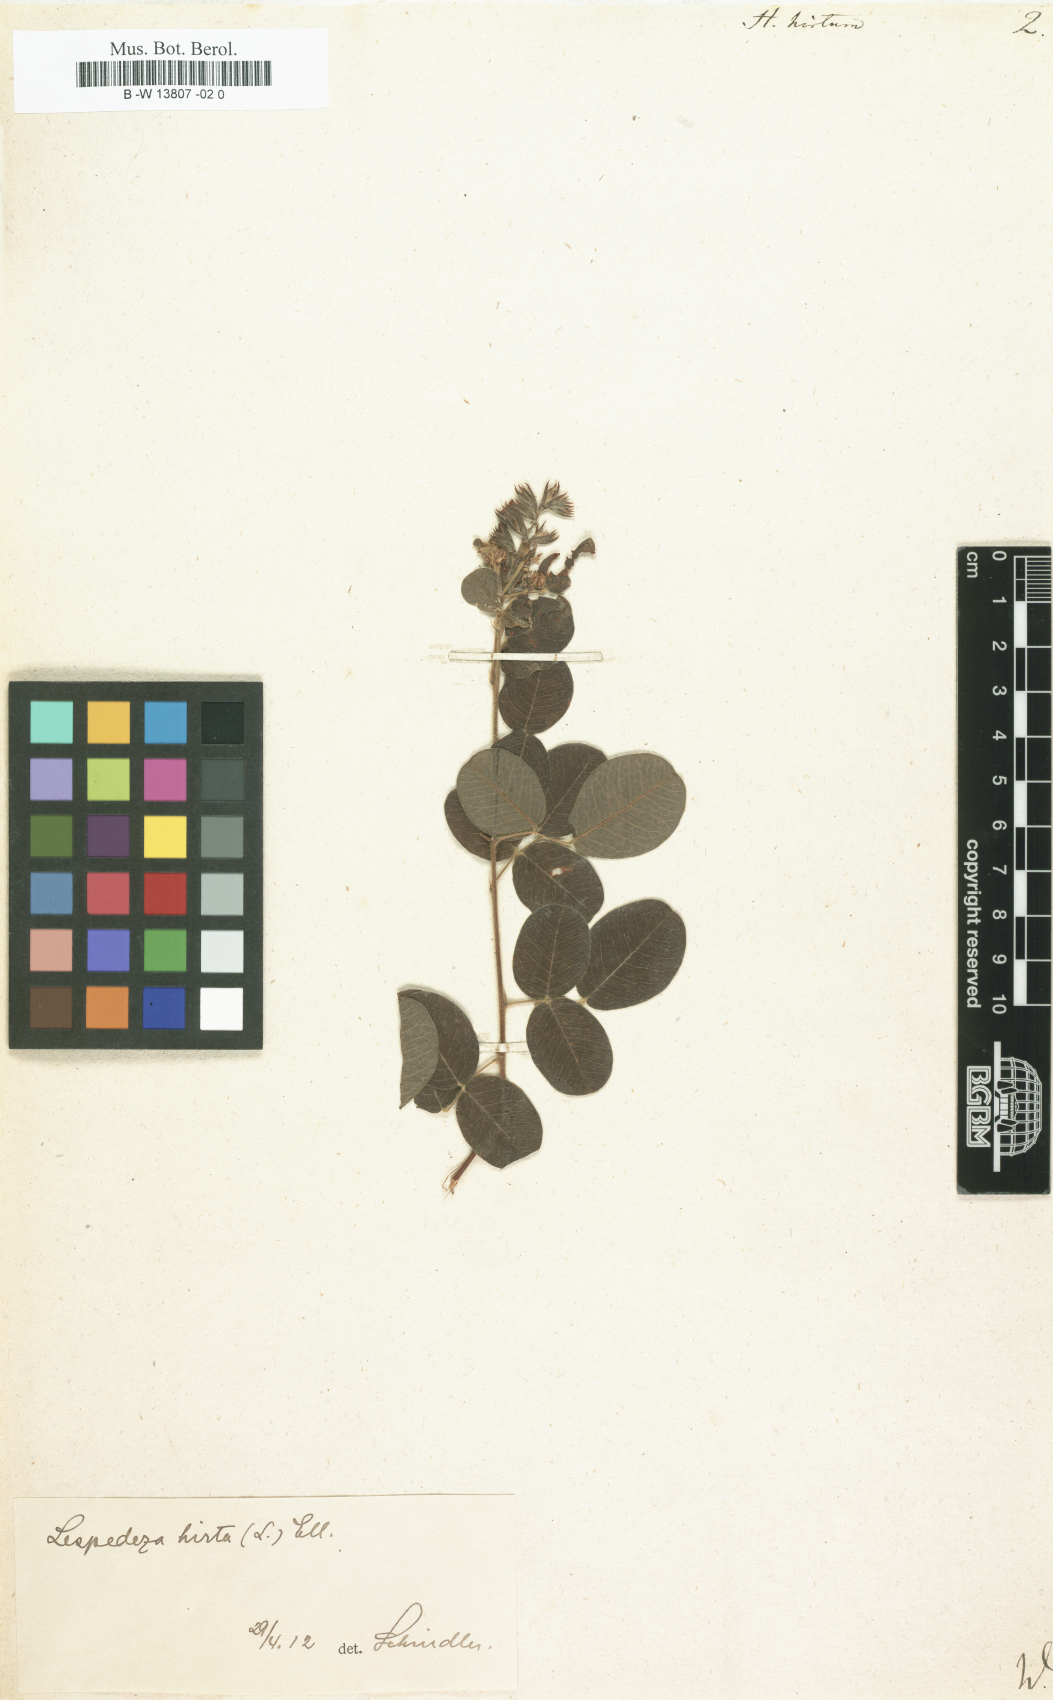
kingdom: Plantae
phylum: Tracheophyta
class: Magnoliopsida
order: Fabales
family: Fabaceae
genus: Hedysarum
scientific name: Hedysarum hirtum
